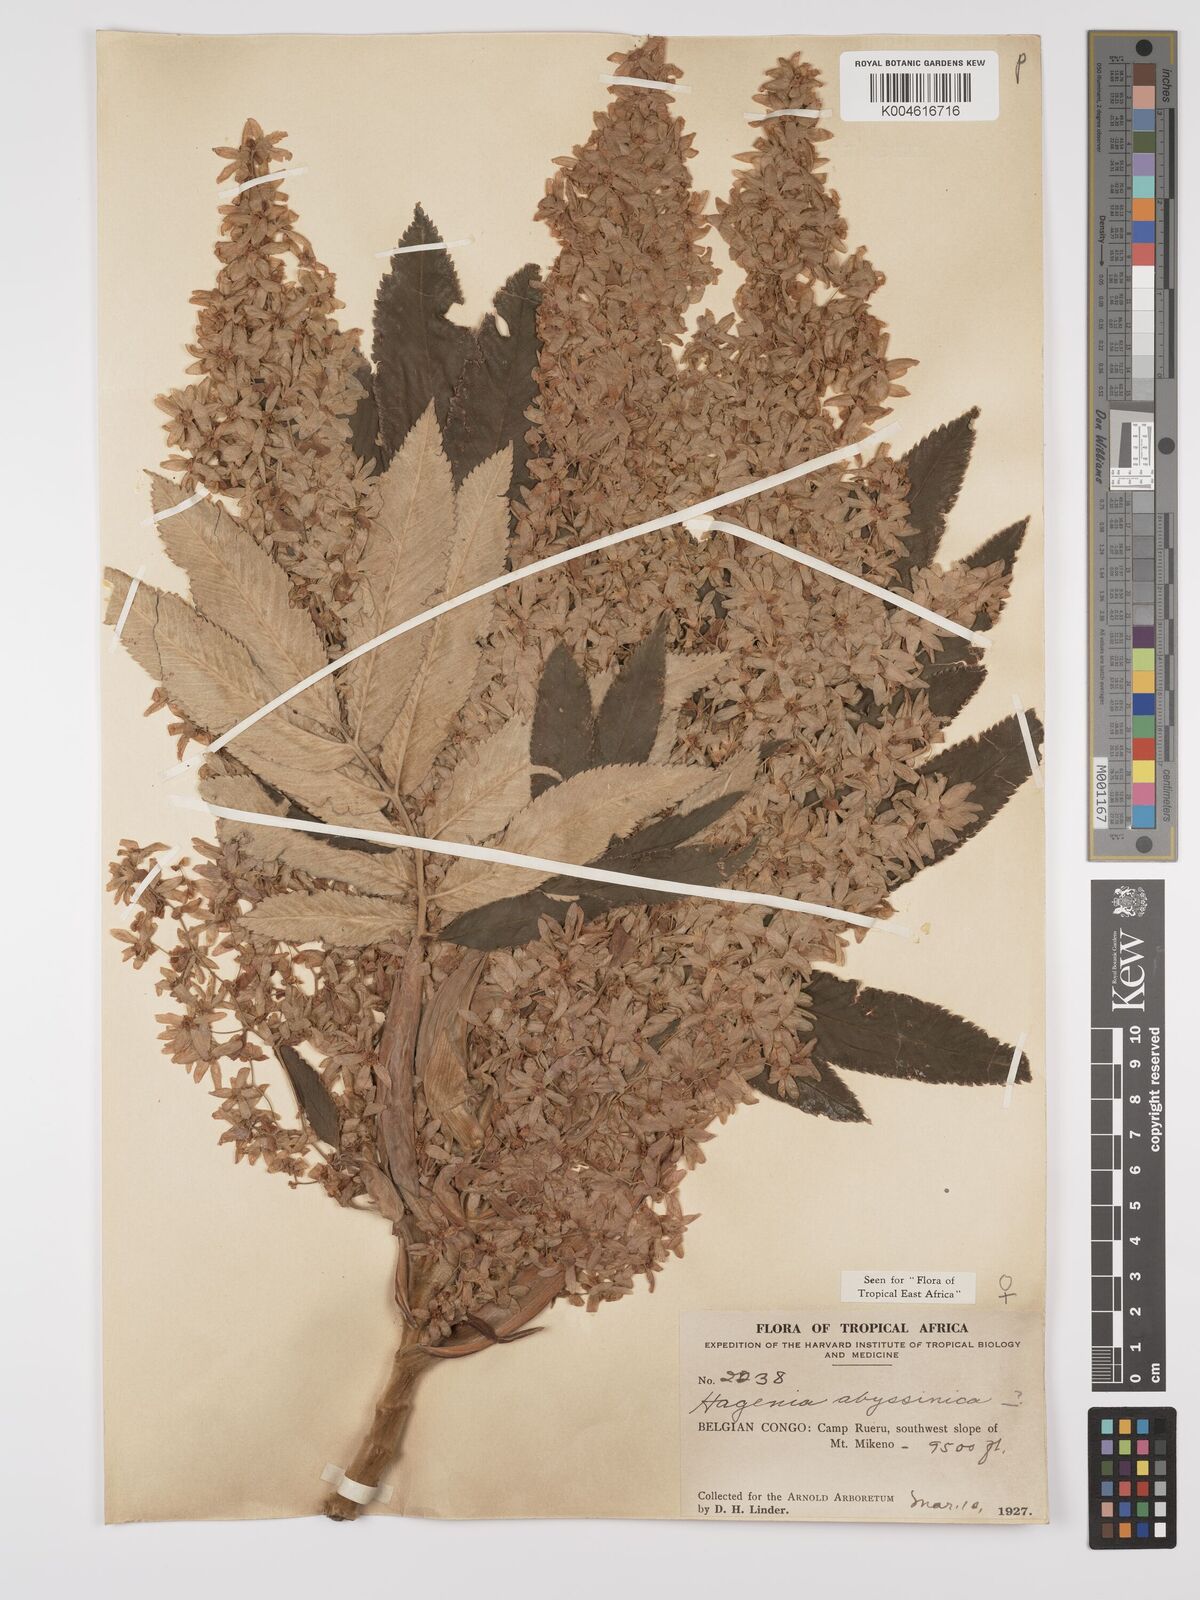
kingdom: Plantae
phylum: Tracheophyta
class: Magnoliopsida
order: Rosales
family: Rosaceae
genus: Hagenia
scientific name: Hagenia abyssinica
